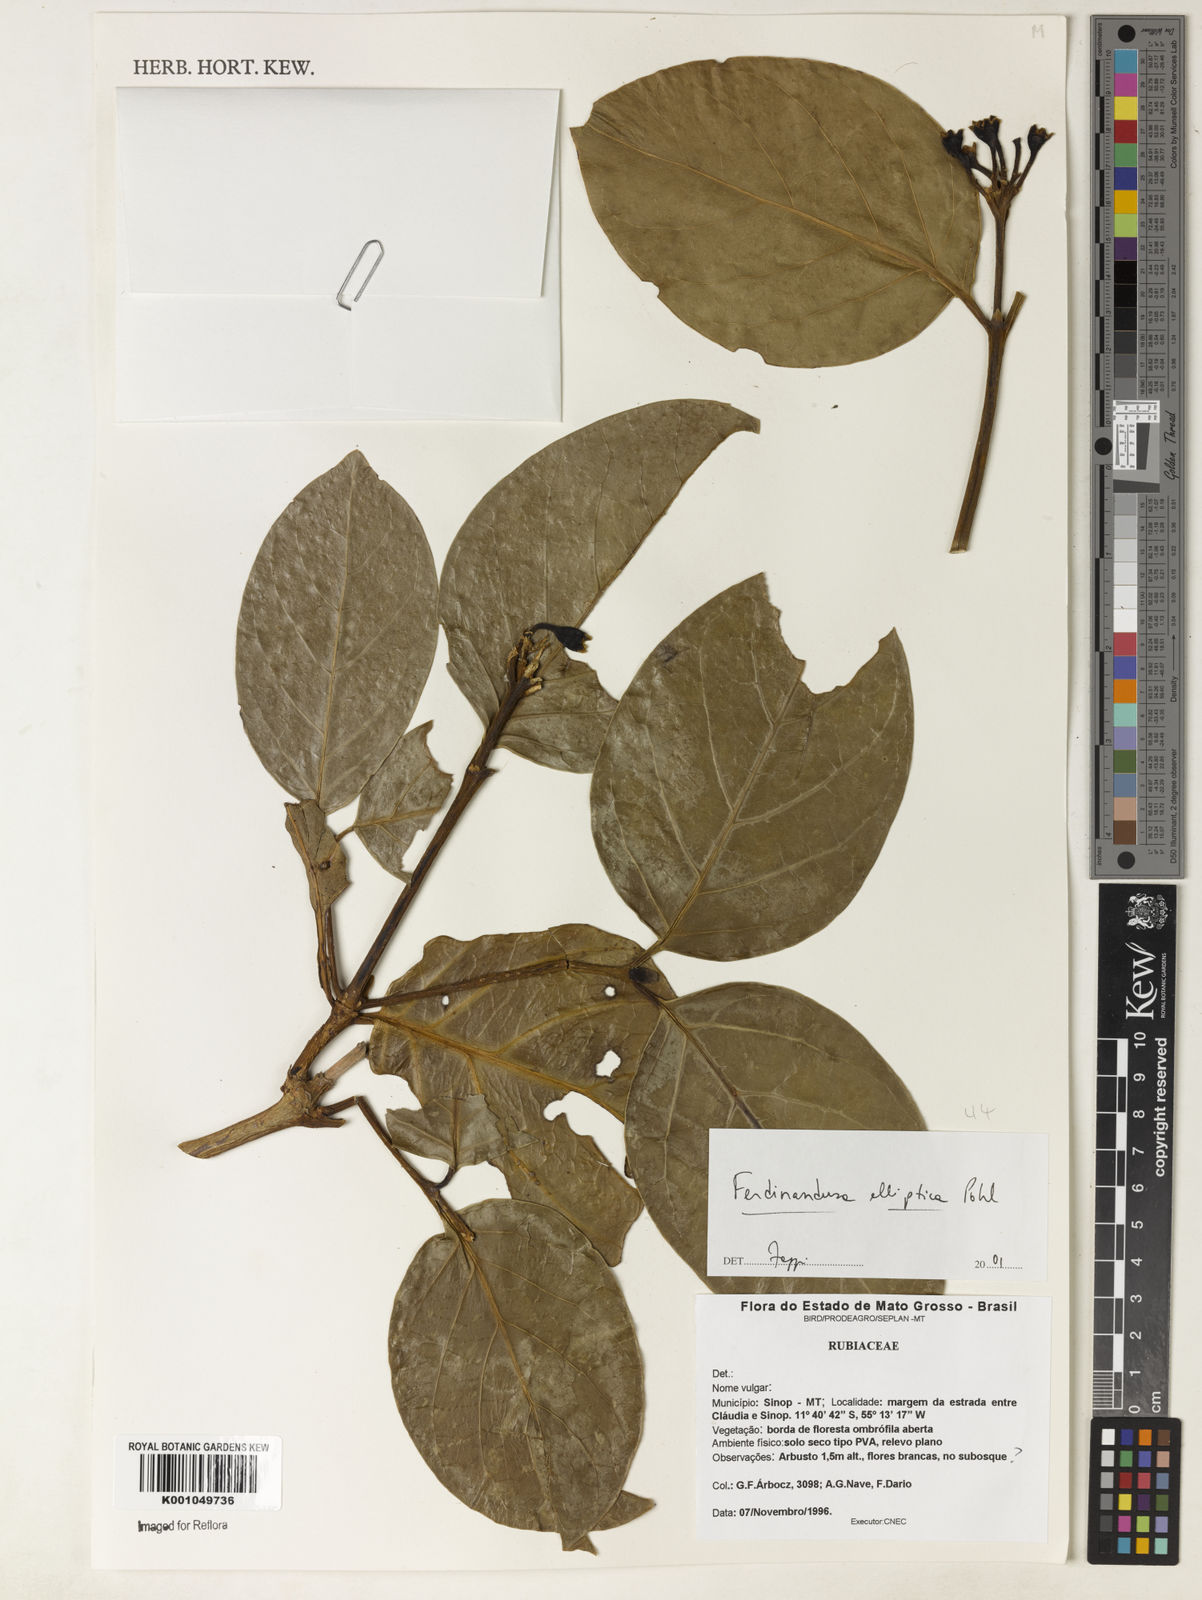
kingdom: Plantae
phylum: Tracheophyta
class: Magnoliopsida
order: Gentianales
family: Rubiaceae
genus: Ferdinandusa
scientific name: Ferdinandusa elliptica
